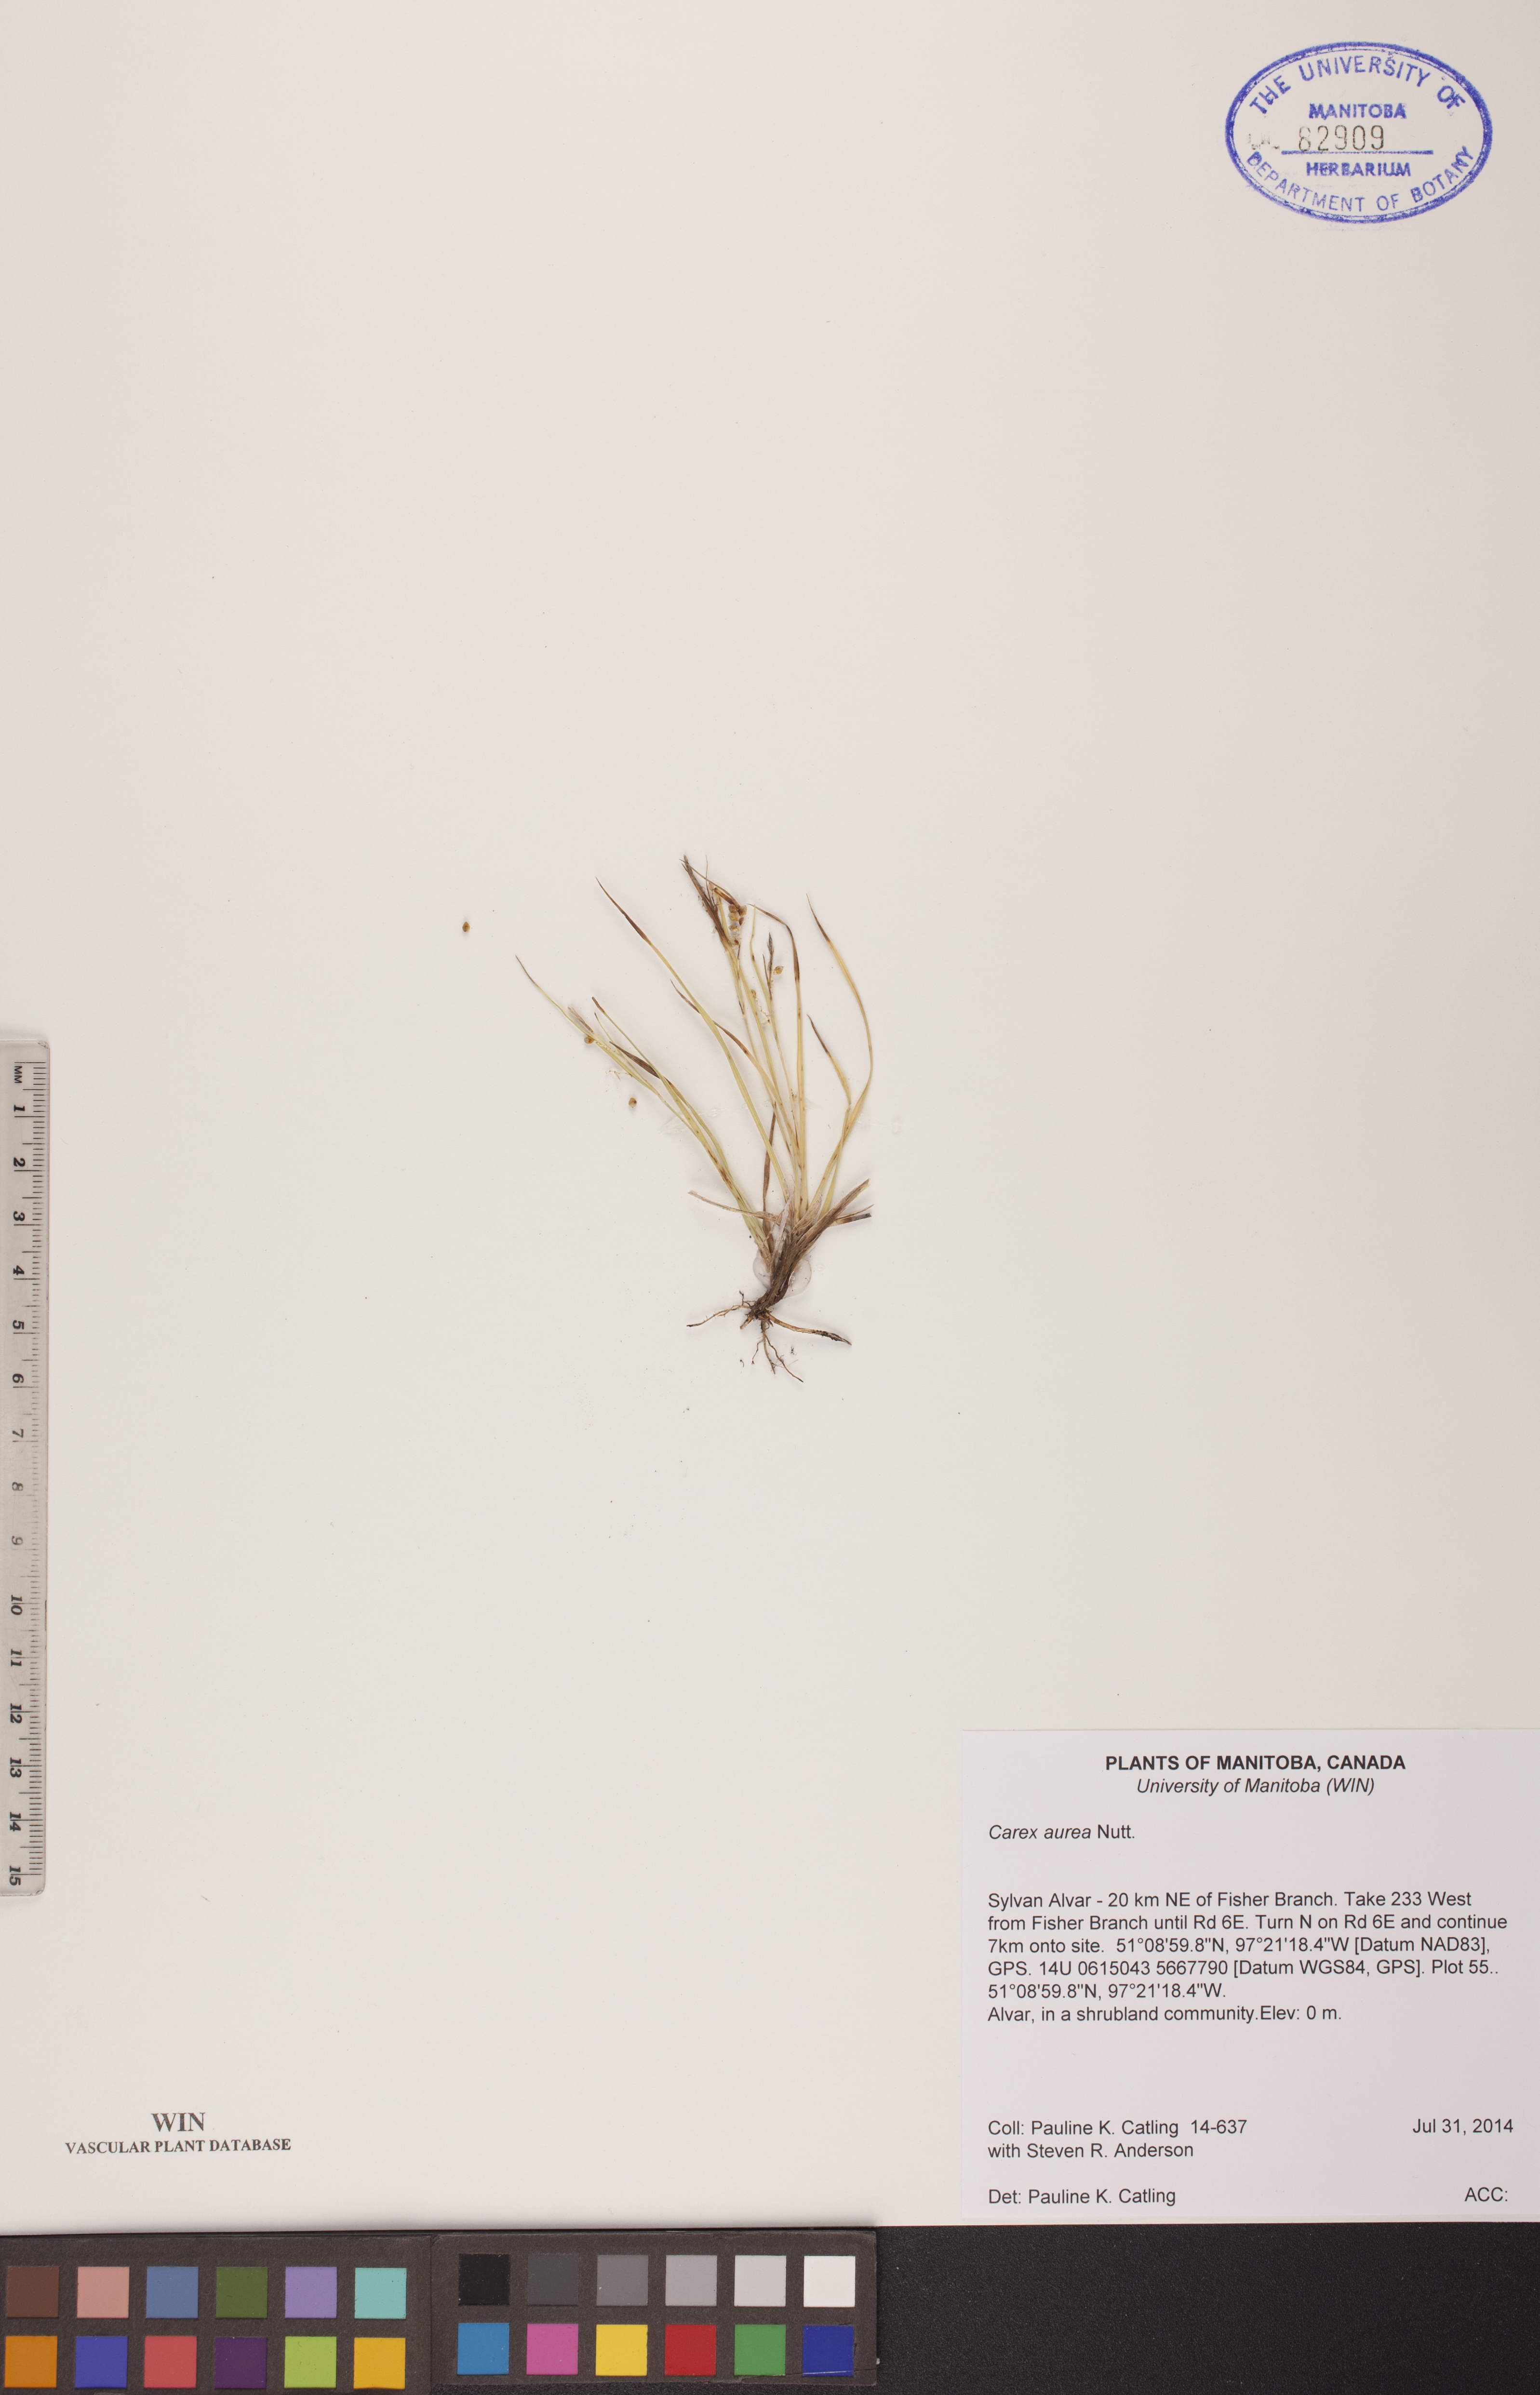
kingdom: Plantae
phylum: Tracheophyta
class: Liliopsida
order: Poales
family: Cyperaceae
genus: Carex
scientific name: Carex aurea
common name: Golden sedge
